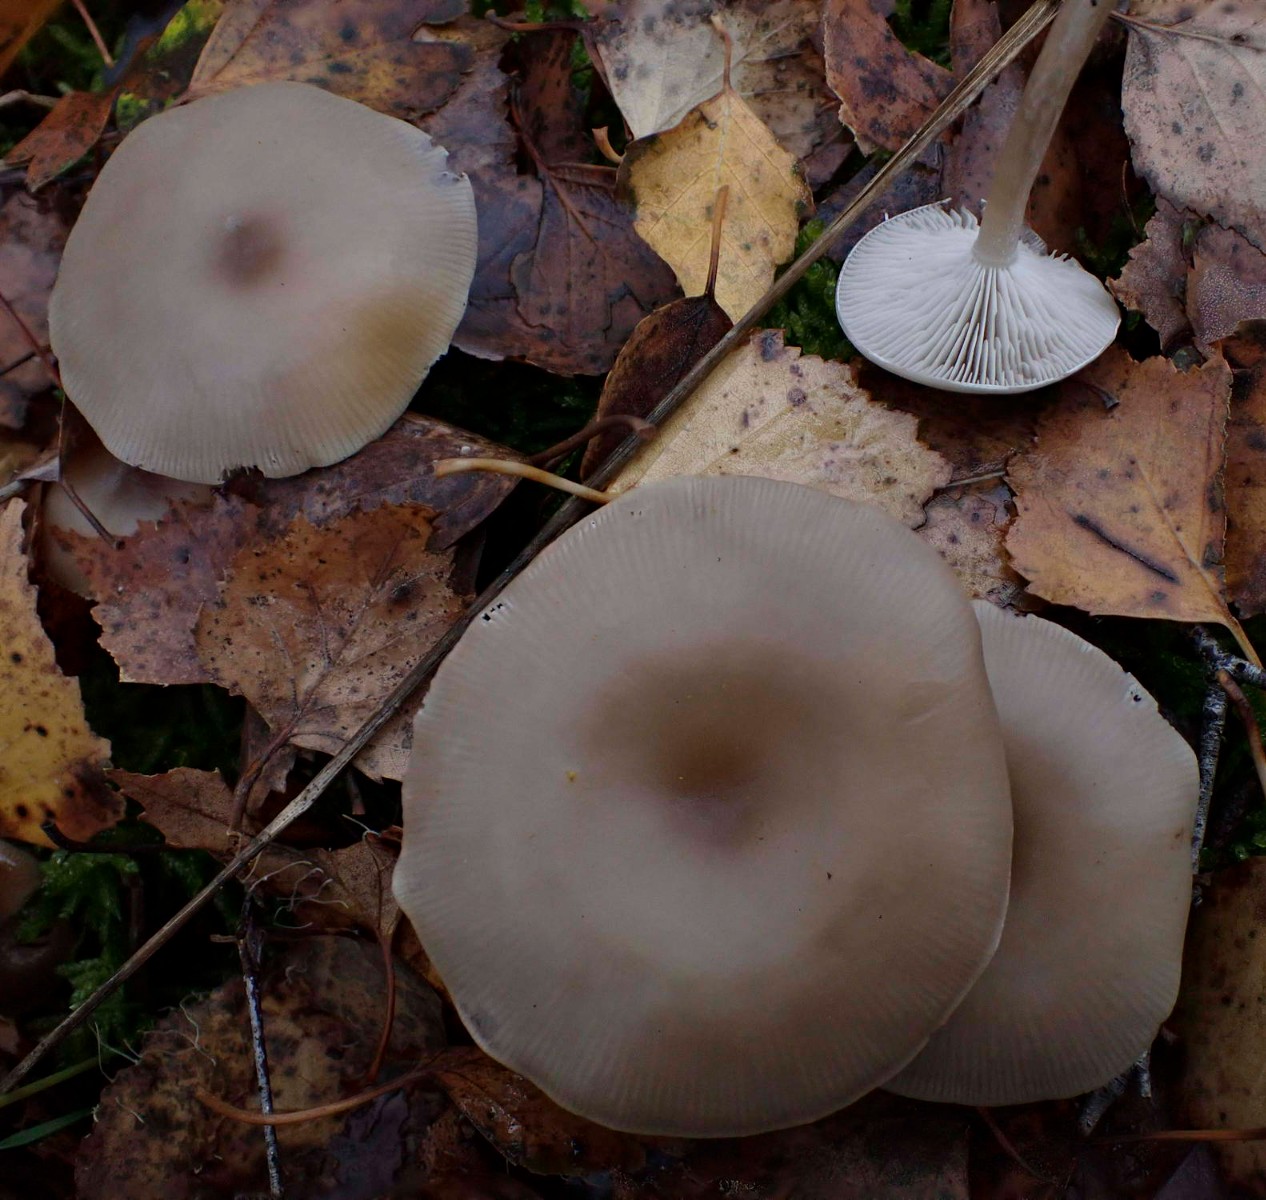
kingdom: Fungi
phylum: Basidiomycota
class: Agaricomycetes
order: Agaricales
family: Tricholomataceae
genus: Clitocybe
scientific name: Clitocybe
